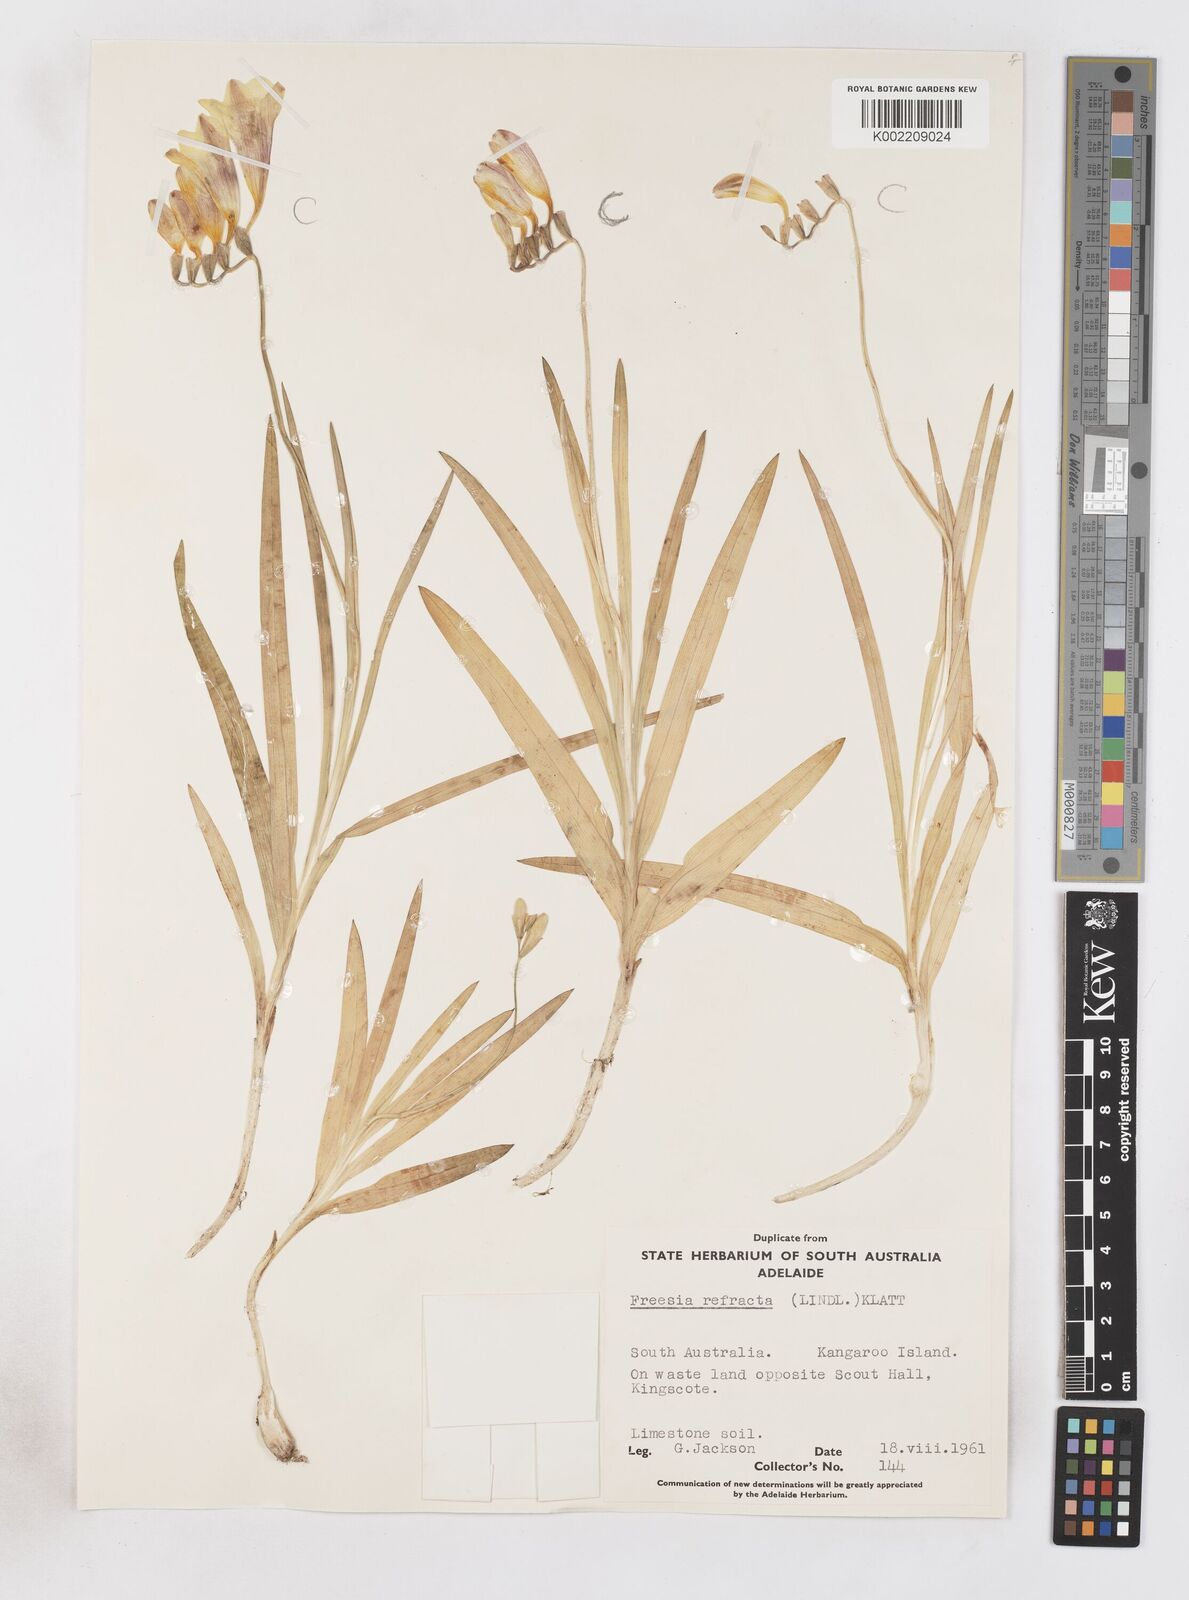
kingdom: Plantae
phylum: Tracheophyta
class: Liliopsida
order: Asparagales
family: Iridaceae
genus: Freesia
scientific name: Freesia refracta
